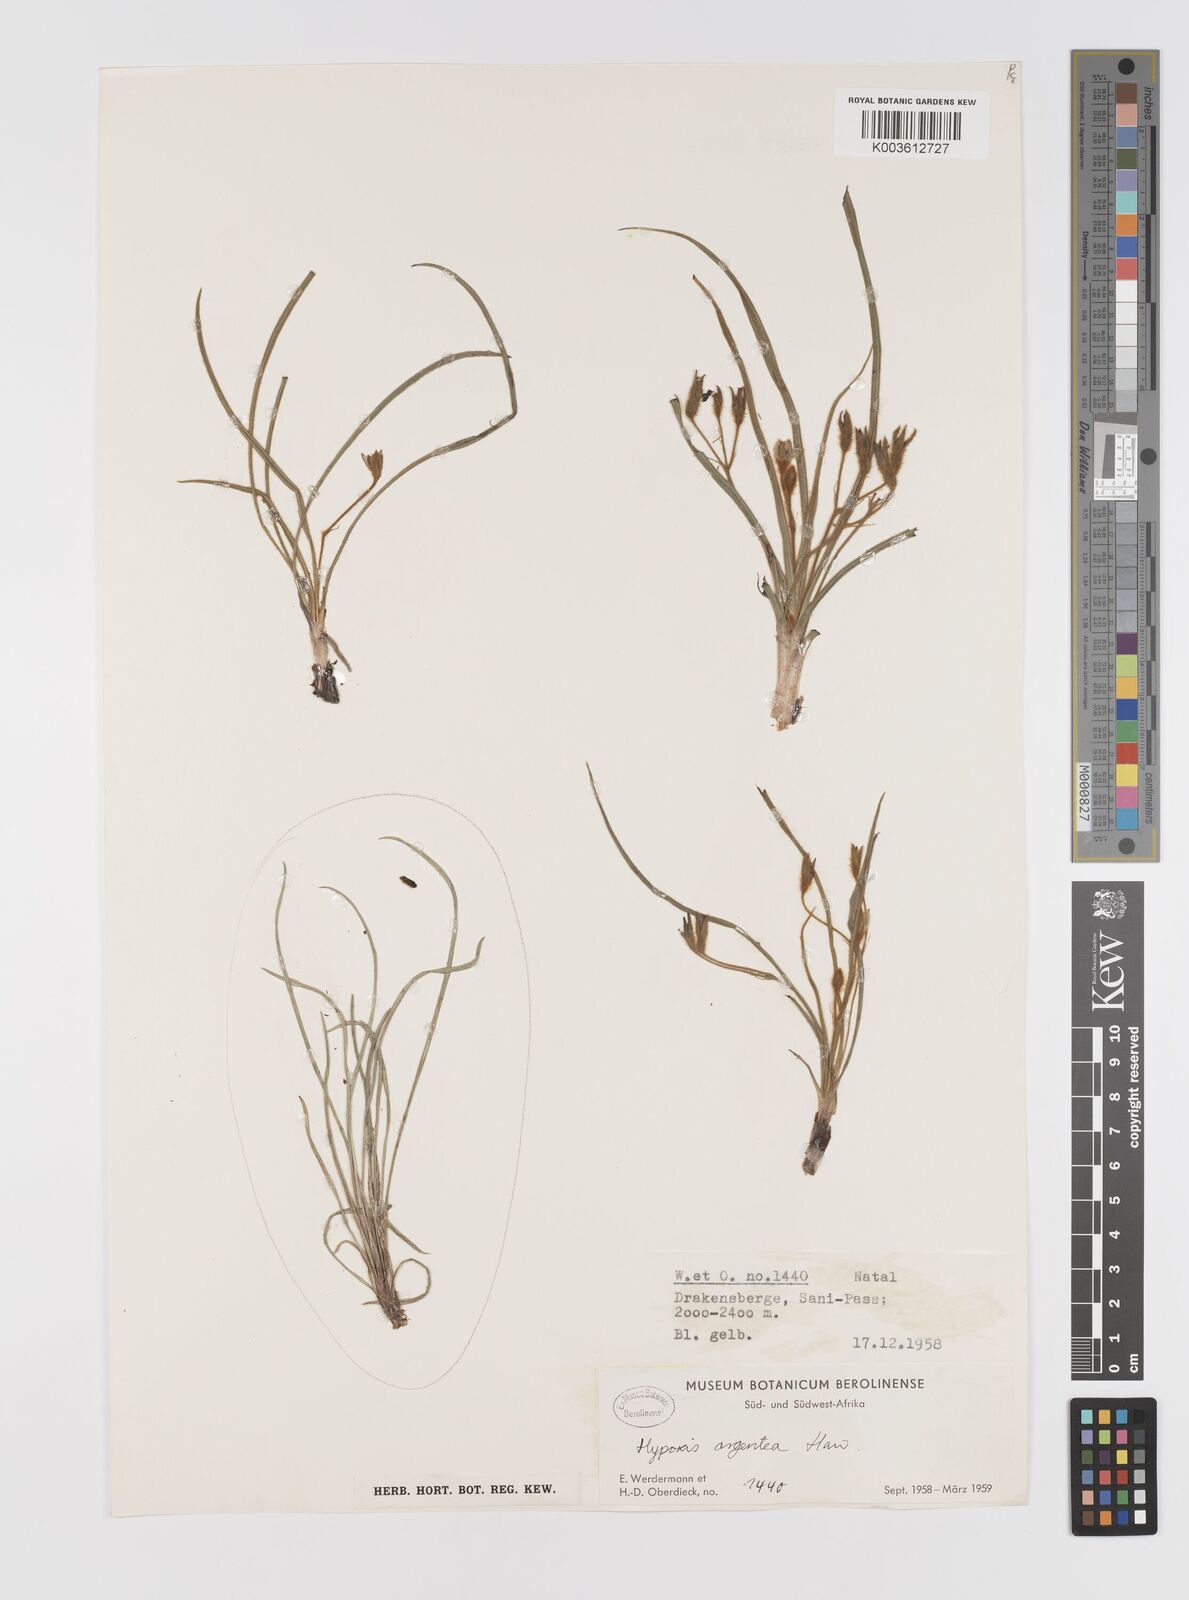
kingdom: Plantae
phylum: Tracheophyta
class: Liliopsida
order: Asparagales
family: Hypoxidaceae
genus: Hypoxis
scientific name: Hypoxis gerrardii
